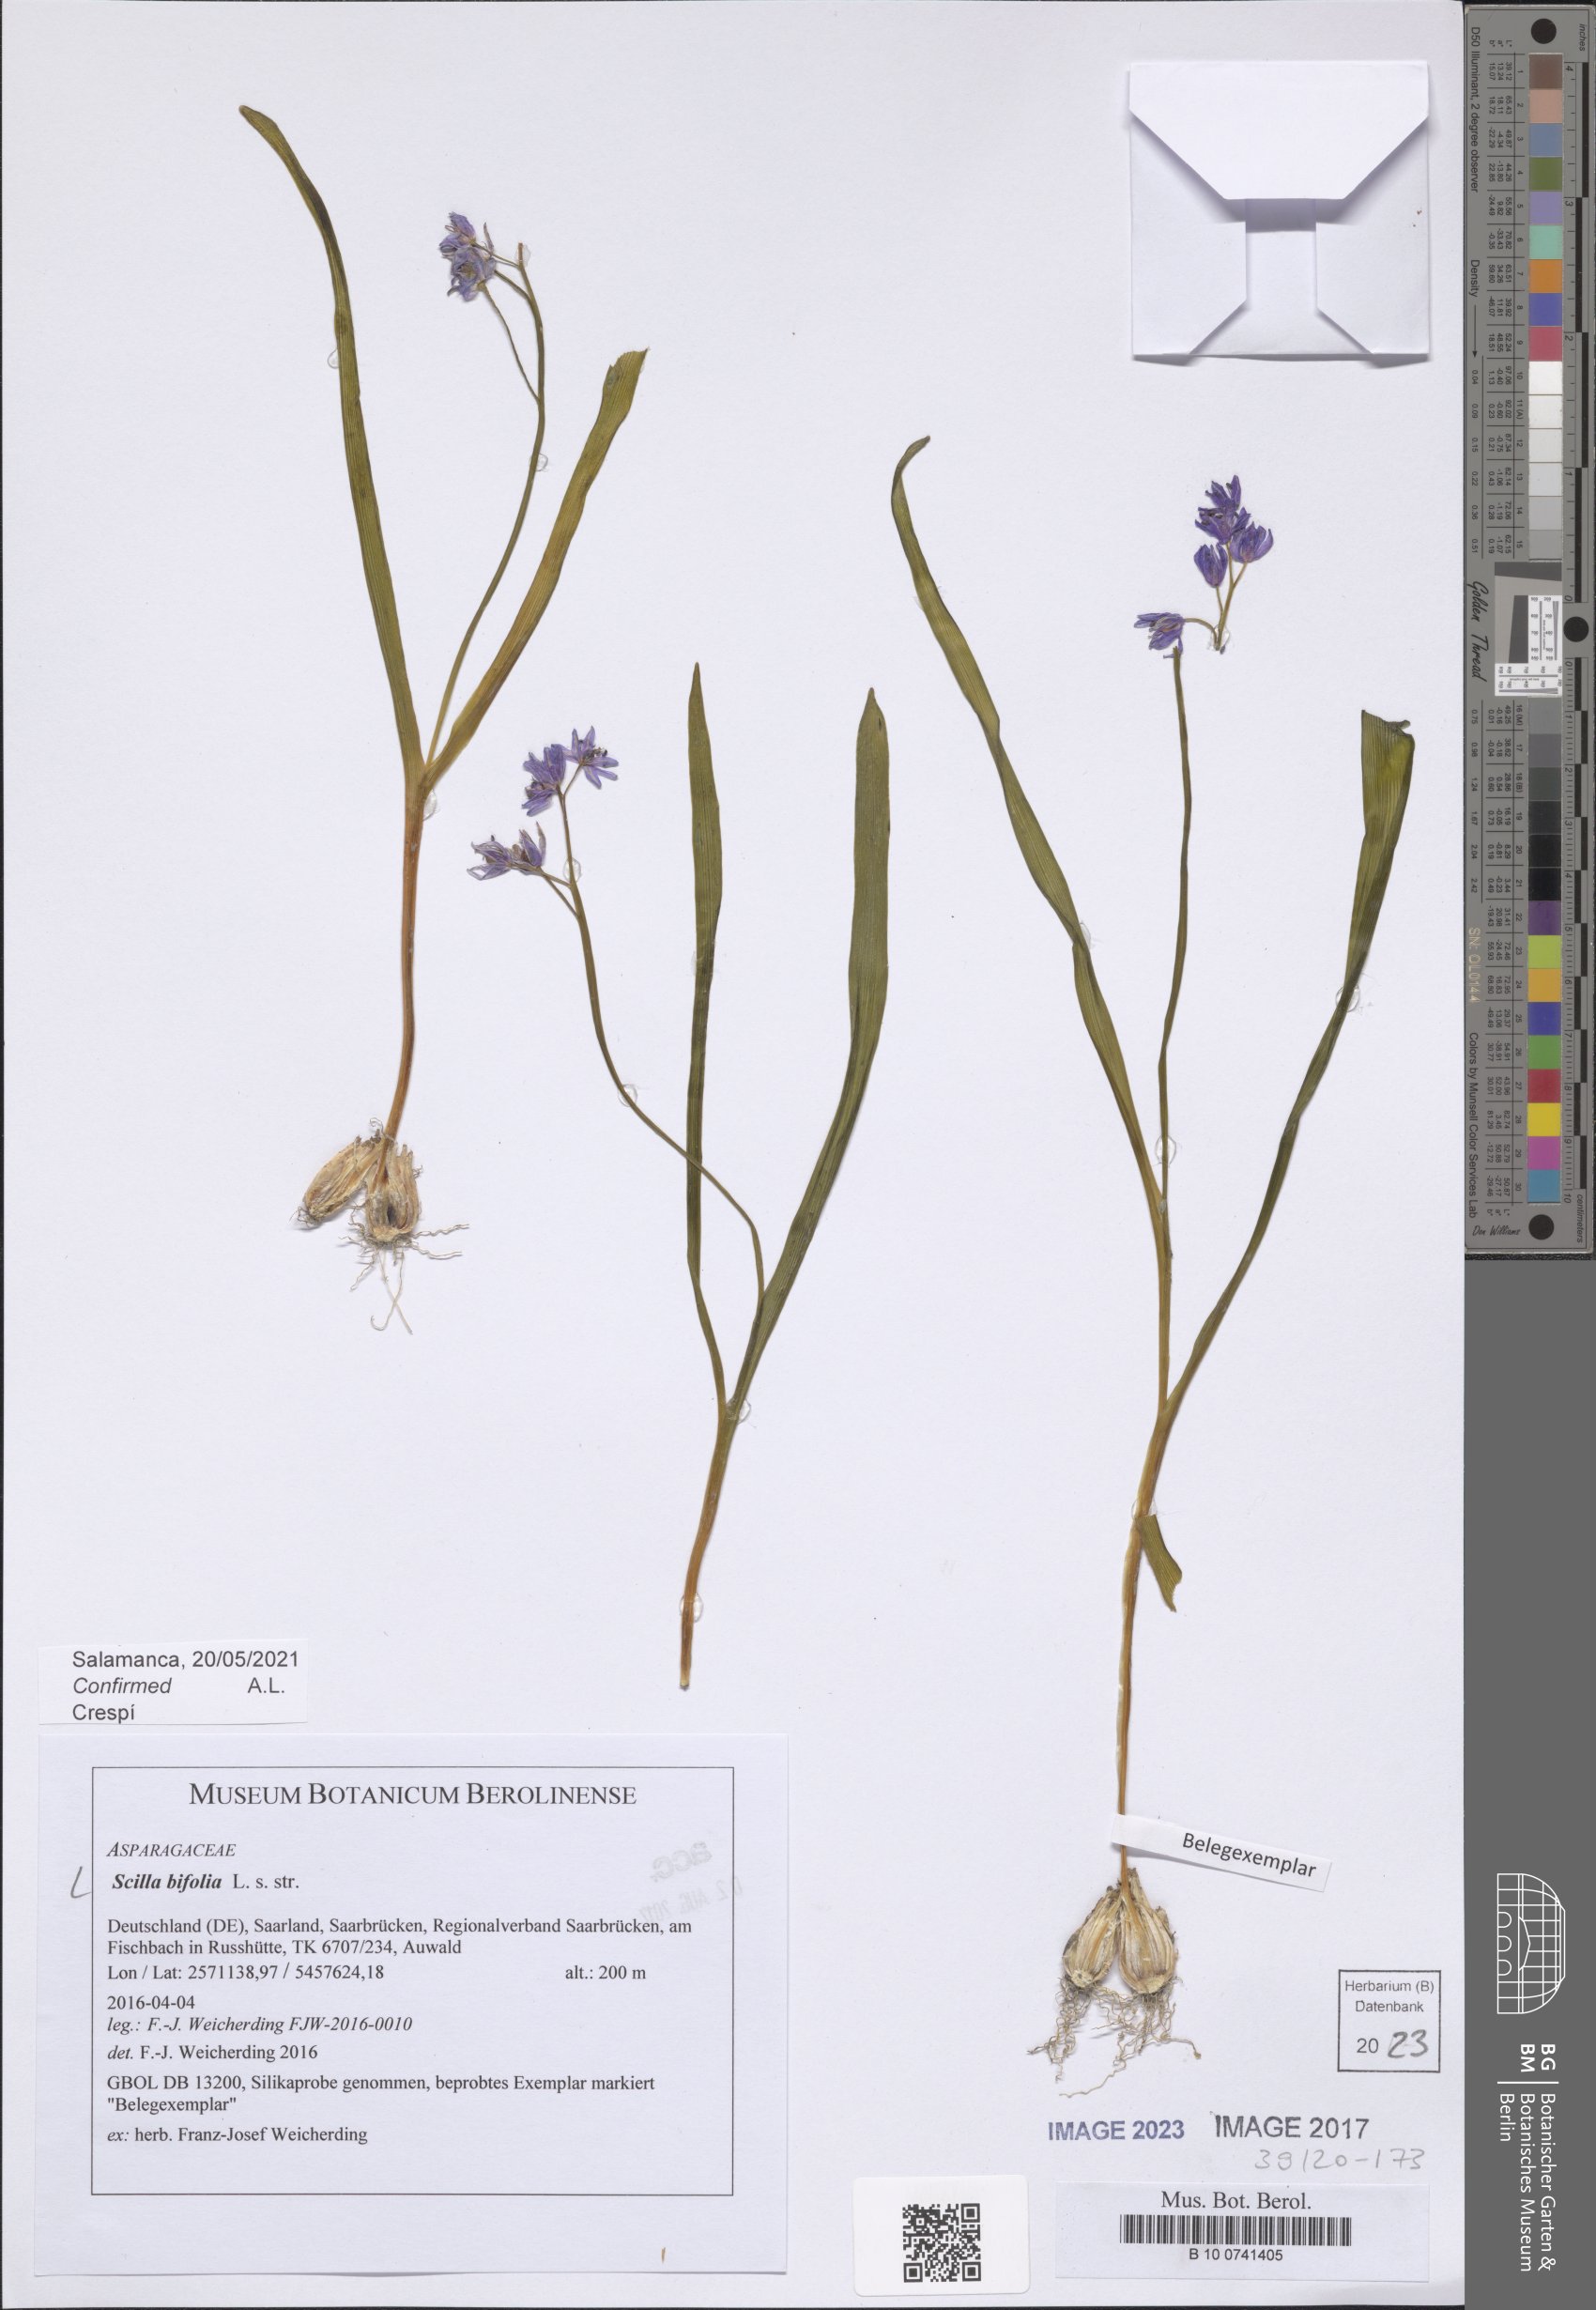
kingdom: Plantae
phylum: Tracheophyta
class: Liliopsida
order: Asparagales
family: Asparagaceae
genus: Scilla
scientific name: Scilla bifolia
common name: Alpine squill
